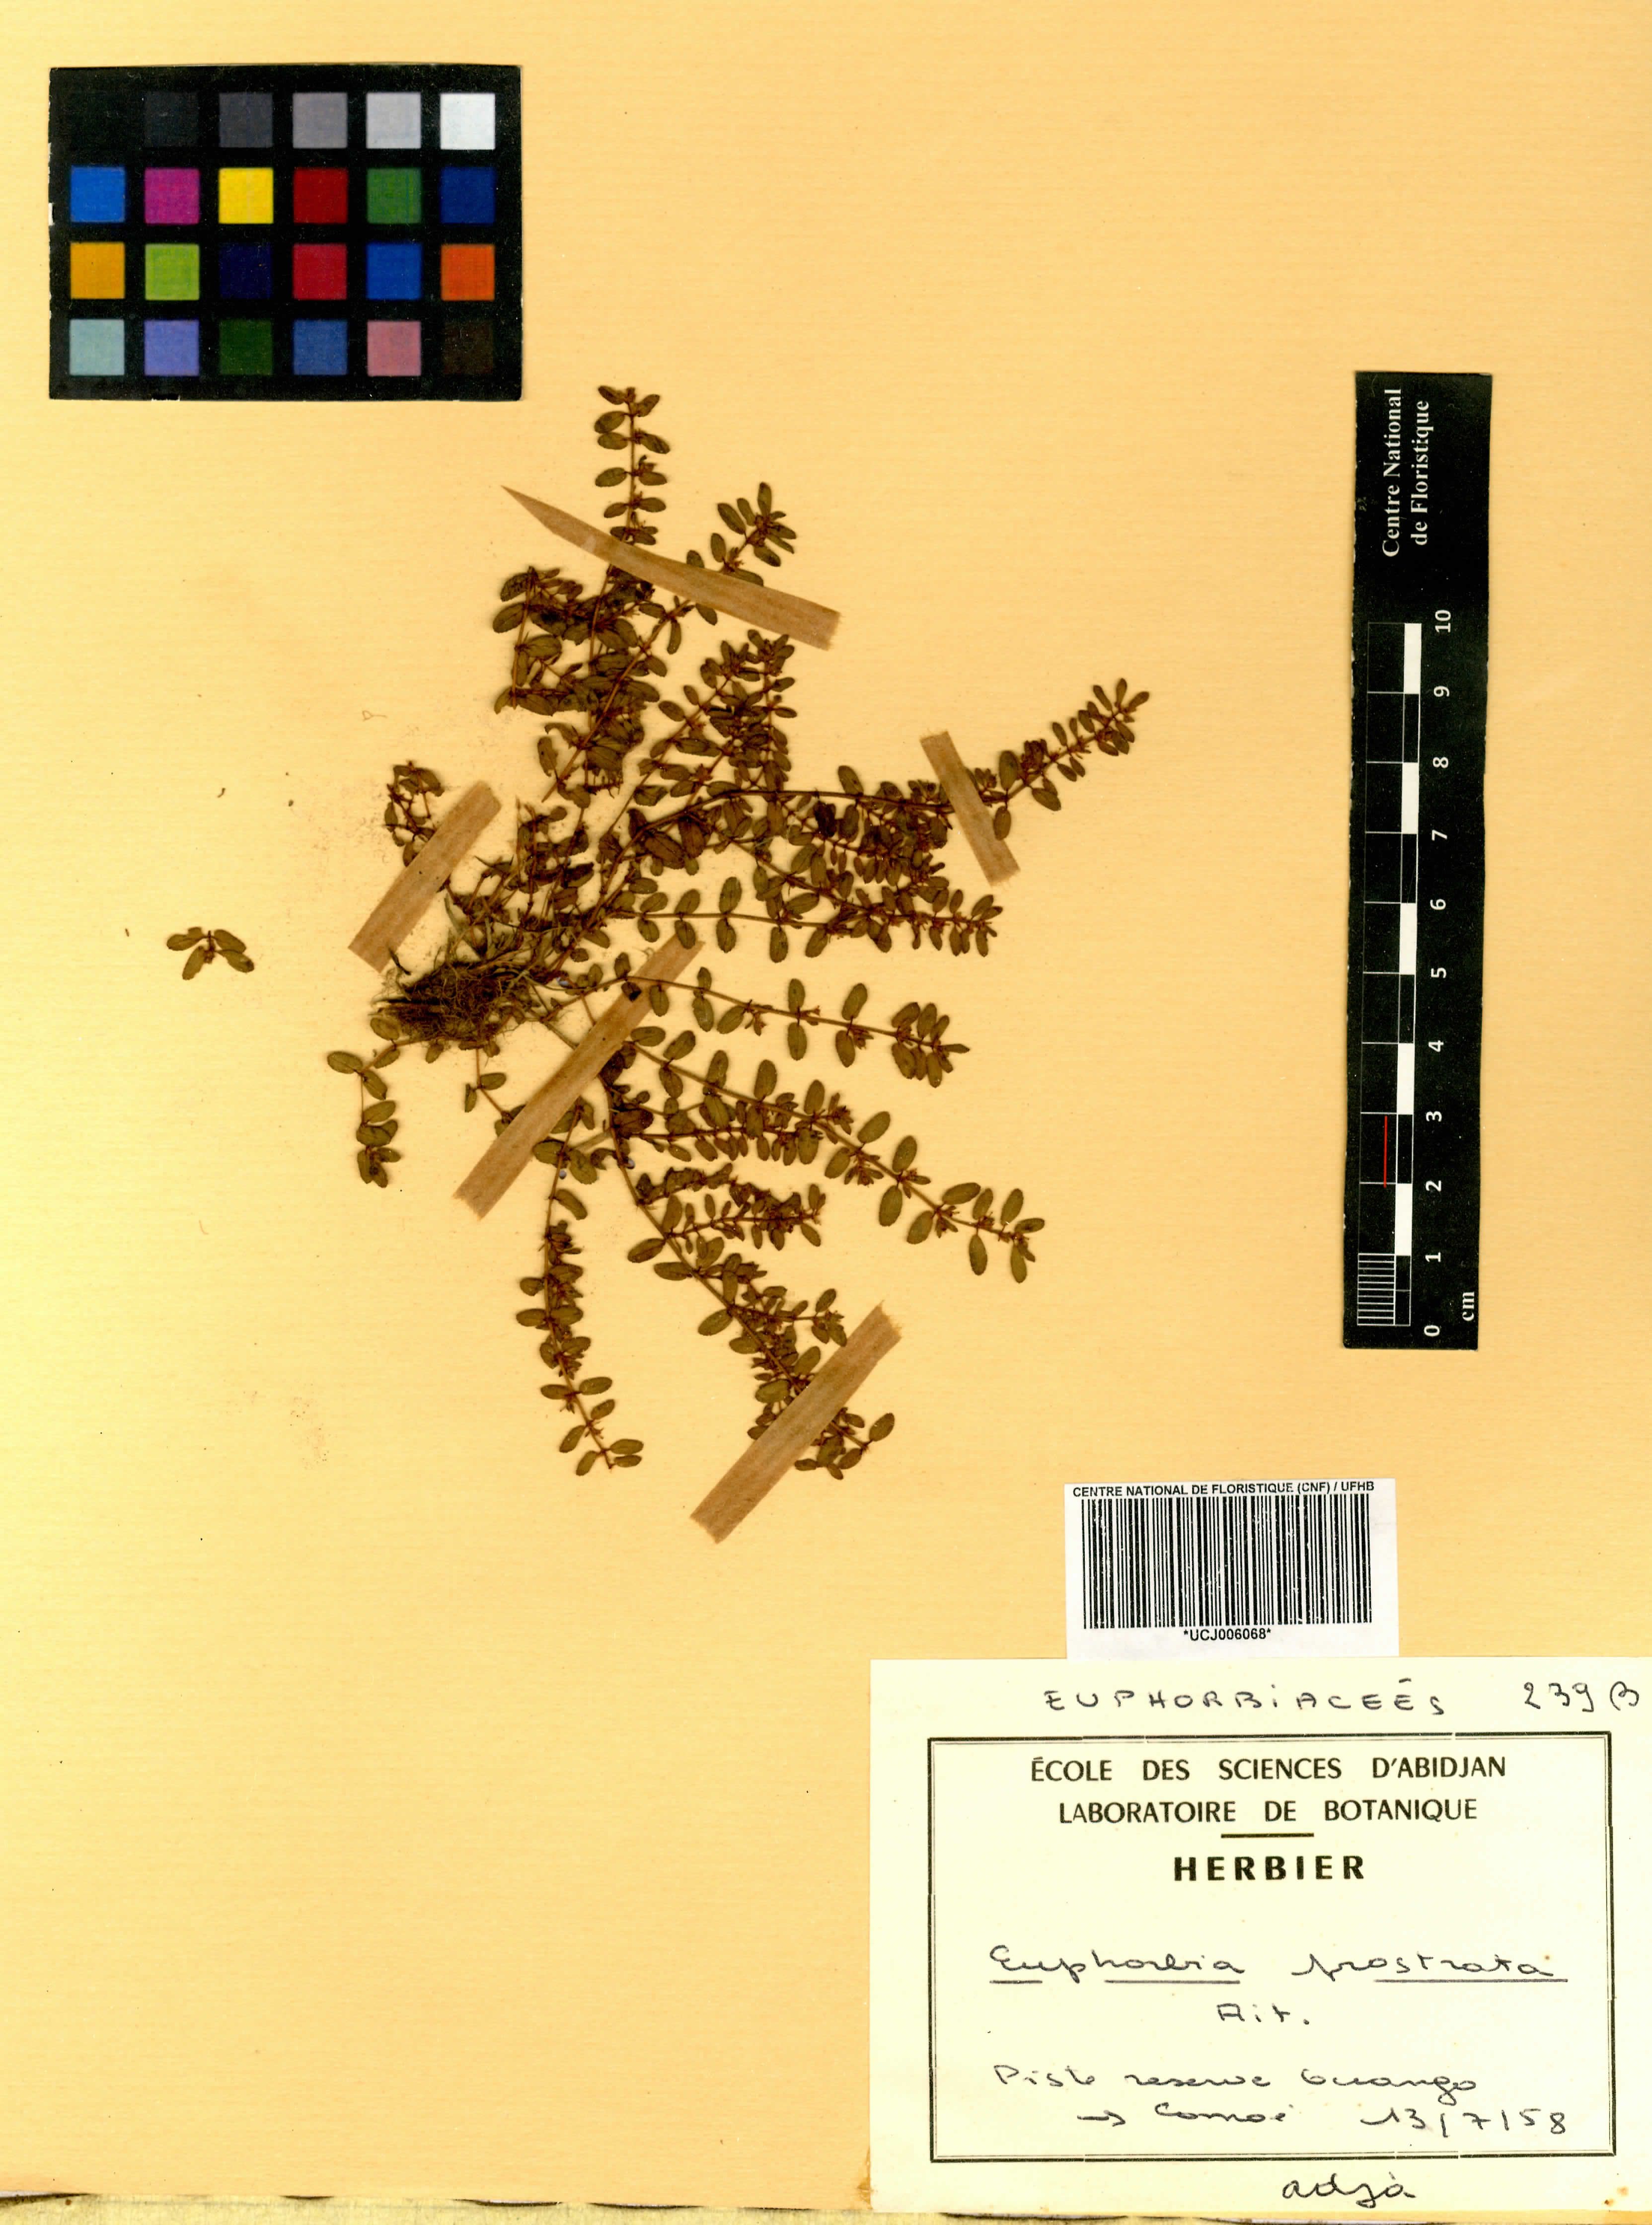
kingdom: Plantae
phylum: Tracheophyta
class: Magnoliopsida
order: Malpighiales
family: Euphorbiaceae
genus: Euphorbia
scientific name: Euphorbia prostrata
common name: Prostrate sandmat
